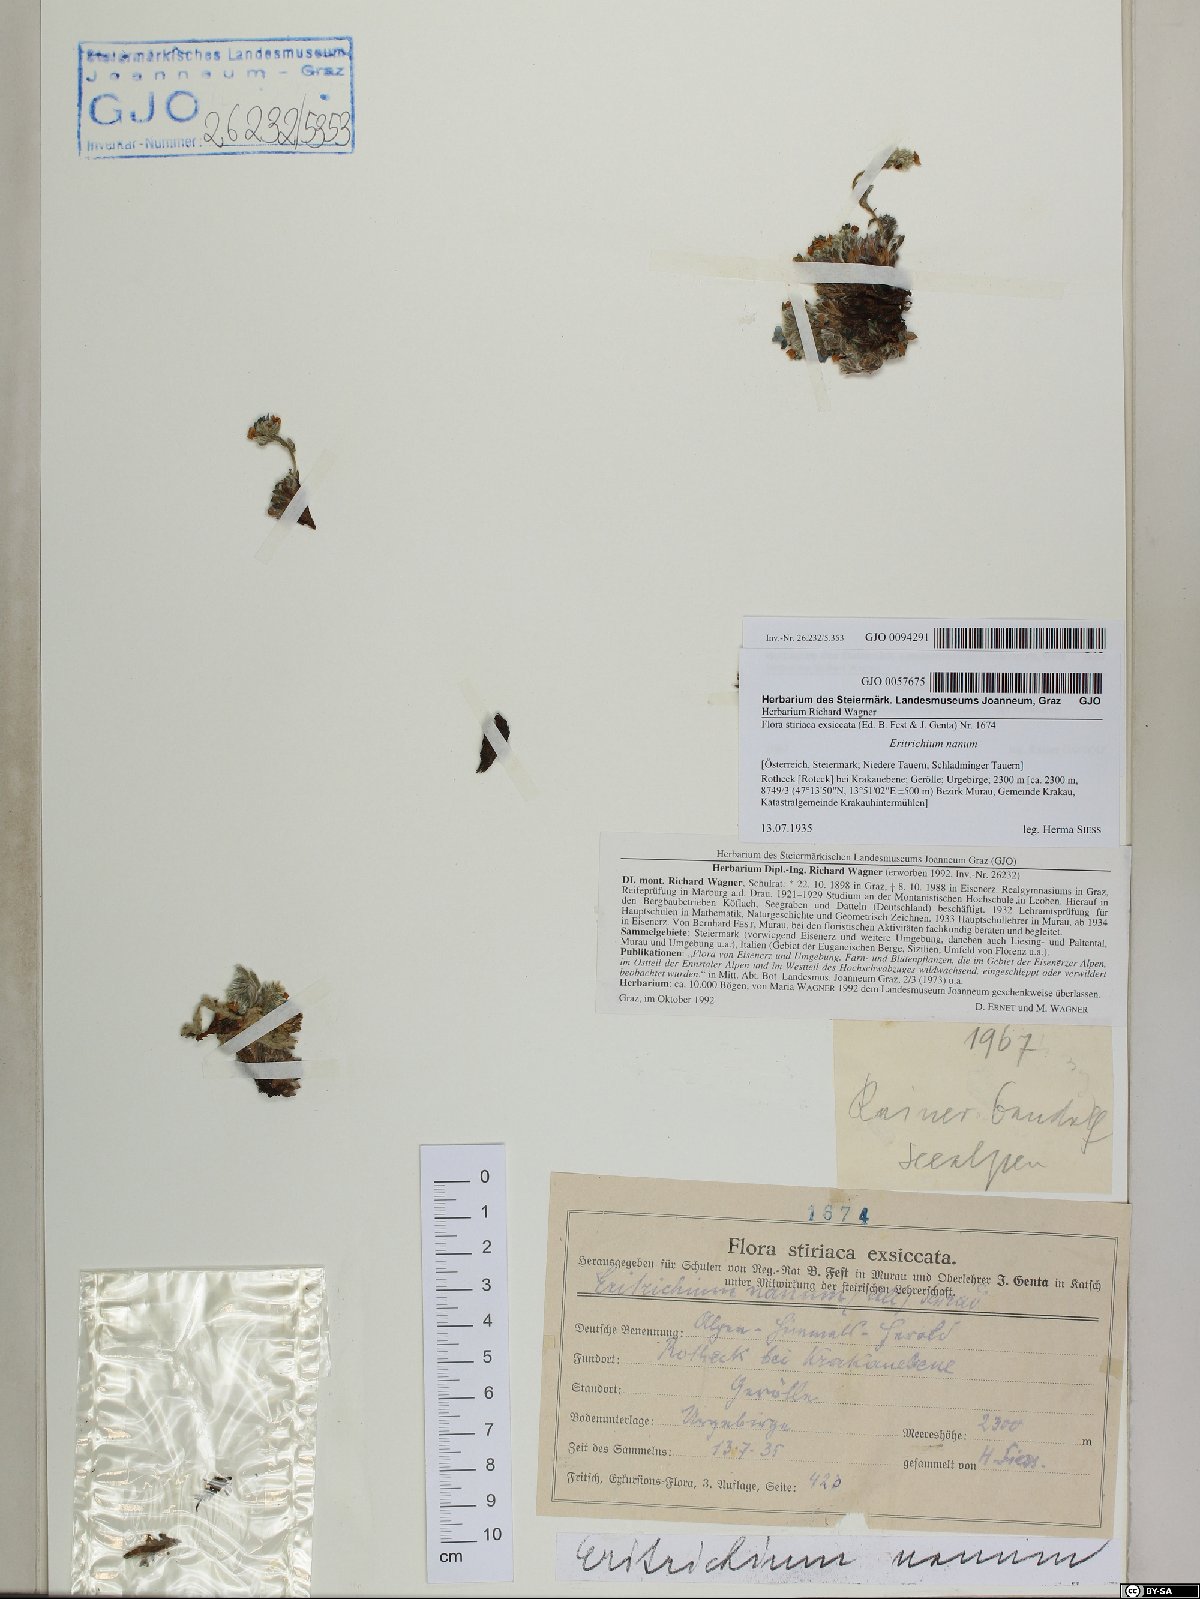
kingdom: Plantae
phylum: Tracheophyta
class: Magnoliopsida
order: Boraginales
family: Boraginaceae
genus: Eritrichium
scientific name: Eritrichium nanum
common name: King-of-the-alps
